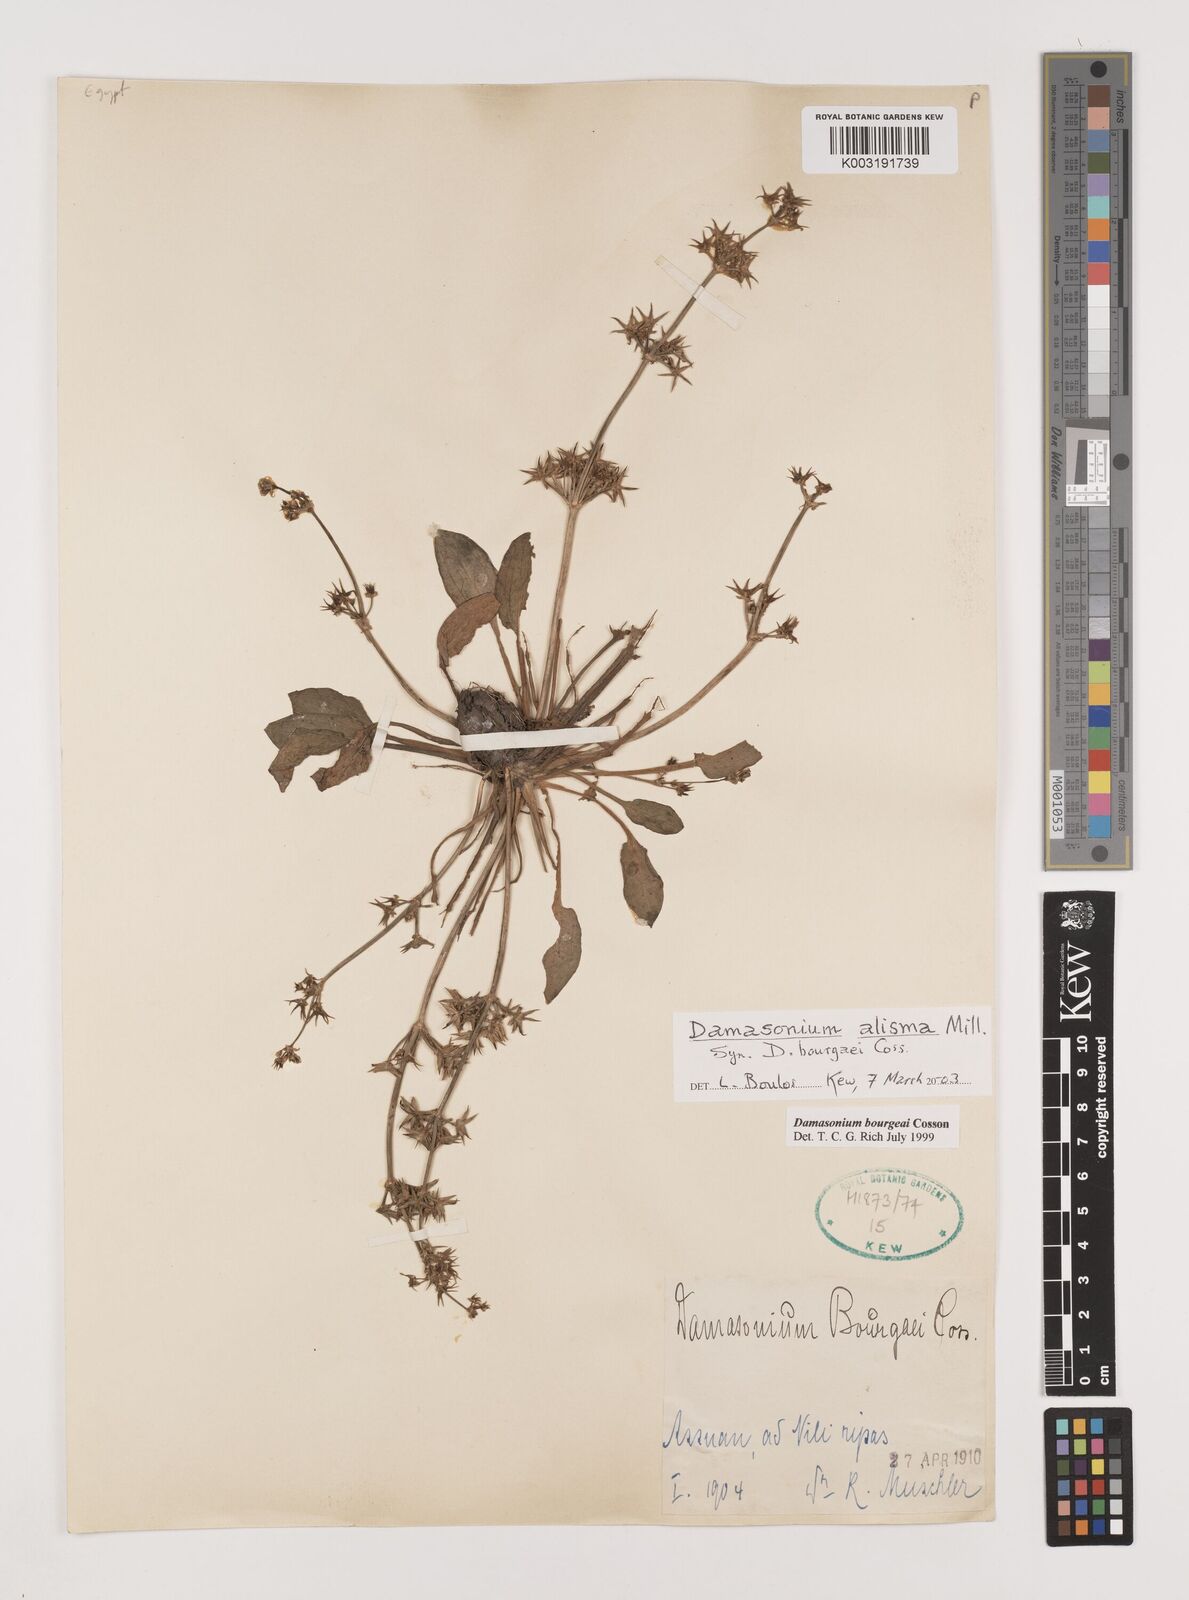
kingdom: Plantae
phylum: Tracheophyta
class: Liliopsida
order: Alismatales
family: Alismataceae
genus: Damasonium
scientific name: Damasonium alisma
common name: Starfruit
